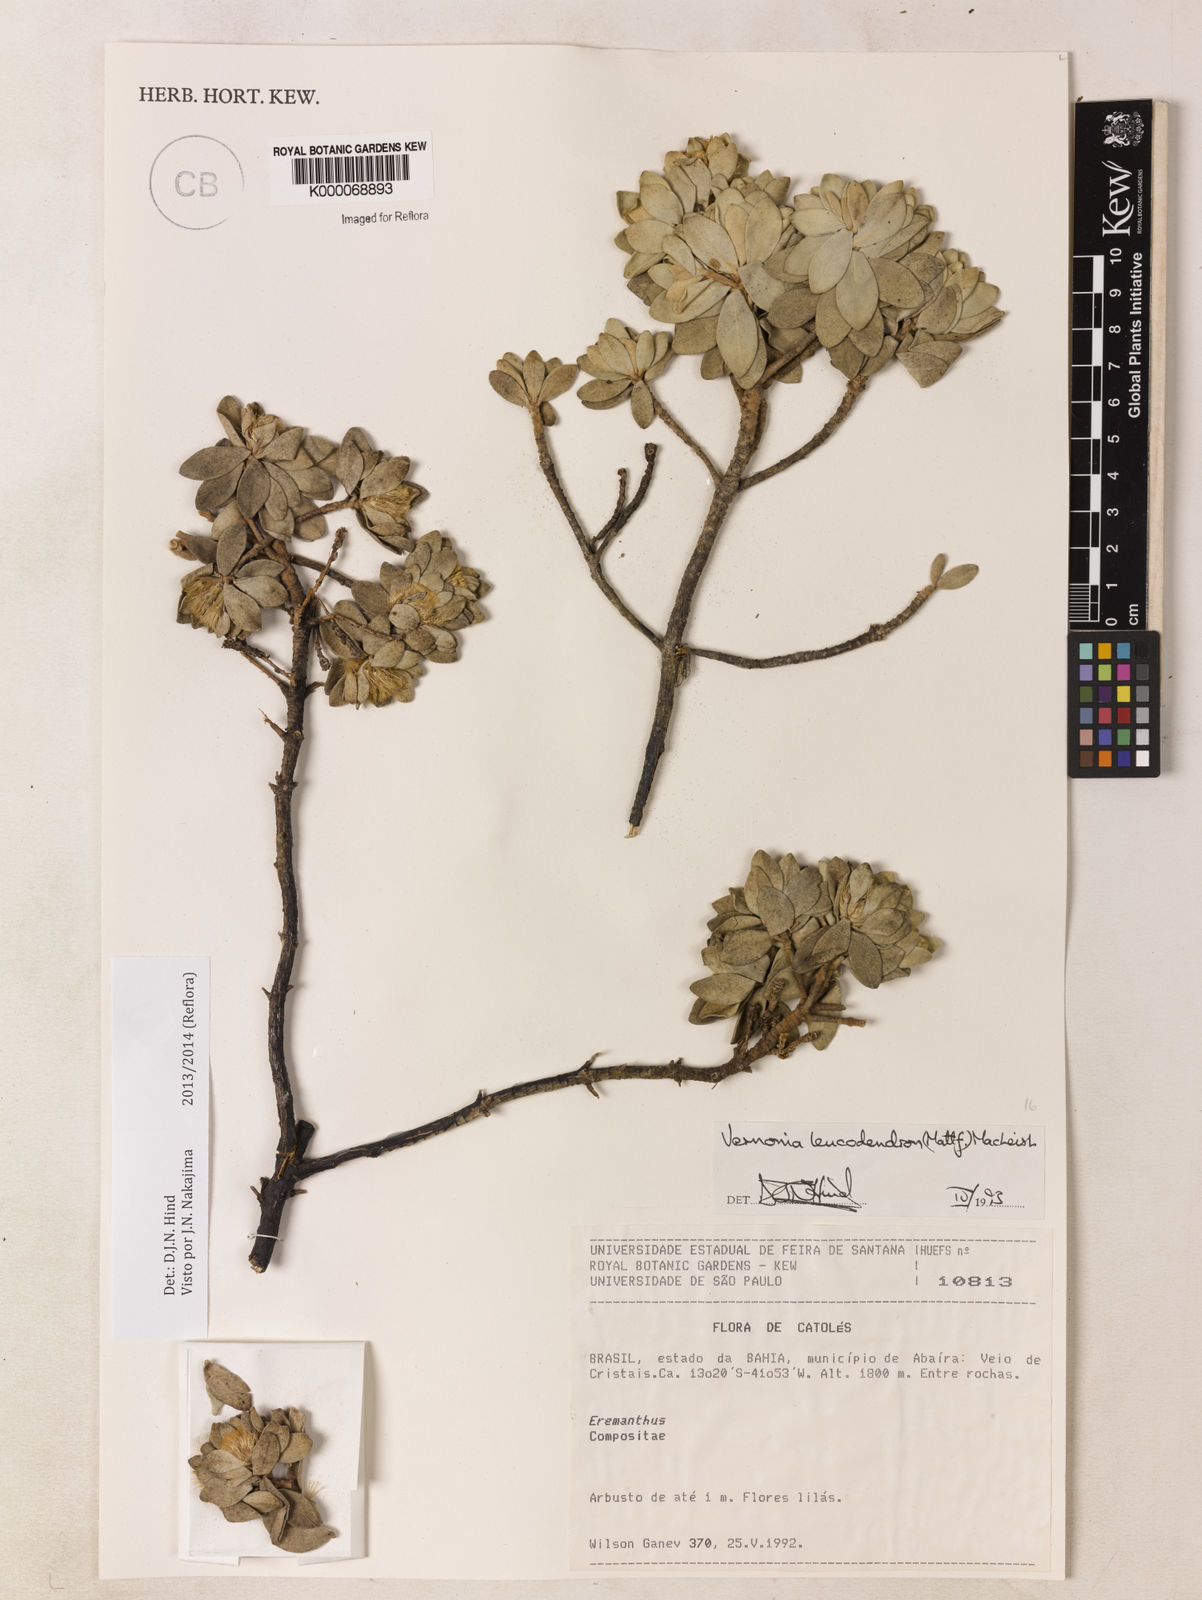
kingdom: Plantae
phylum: Tracheophyta
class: Magnoliopsida
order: Asterales
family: Asteraceae
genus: Lychnophorella
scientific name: Lychnophorella leucodendron
